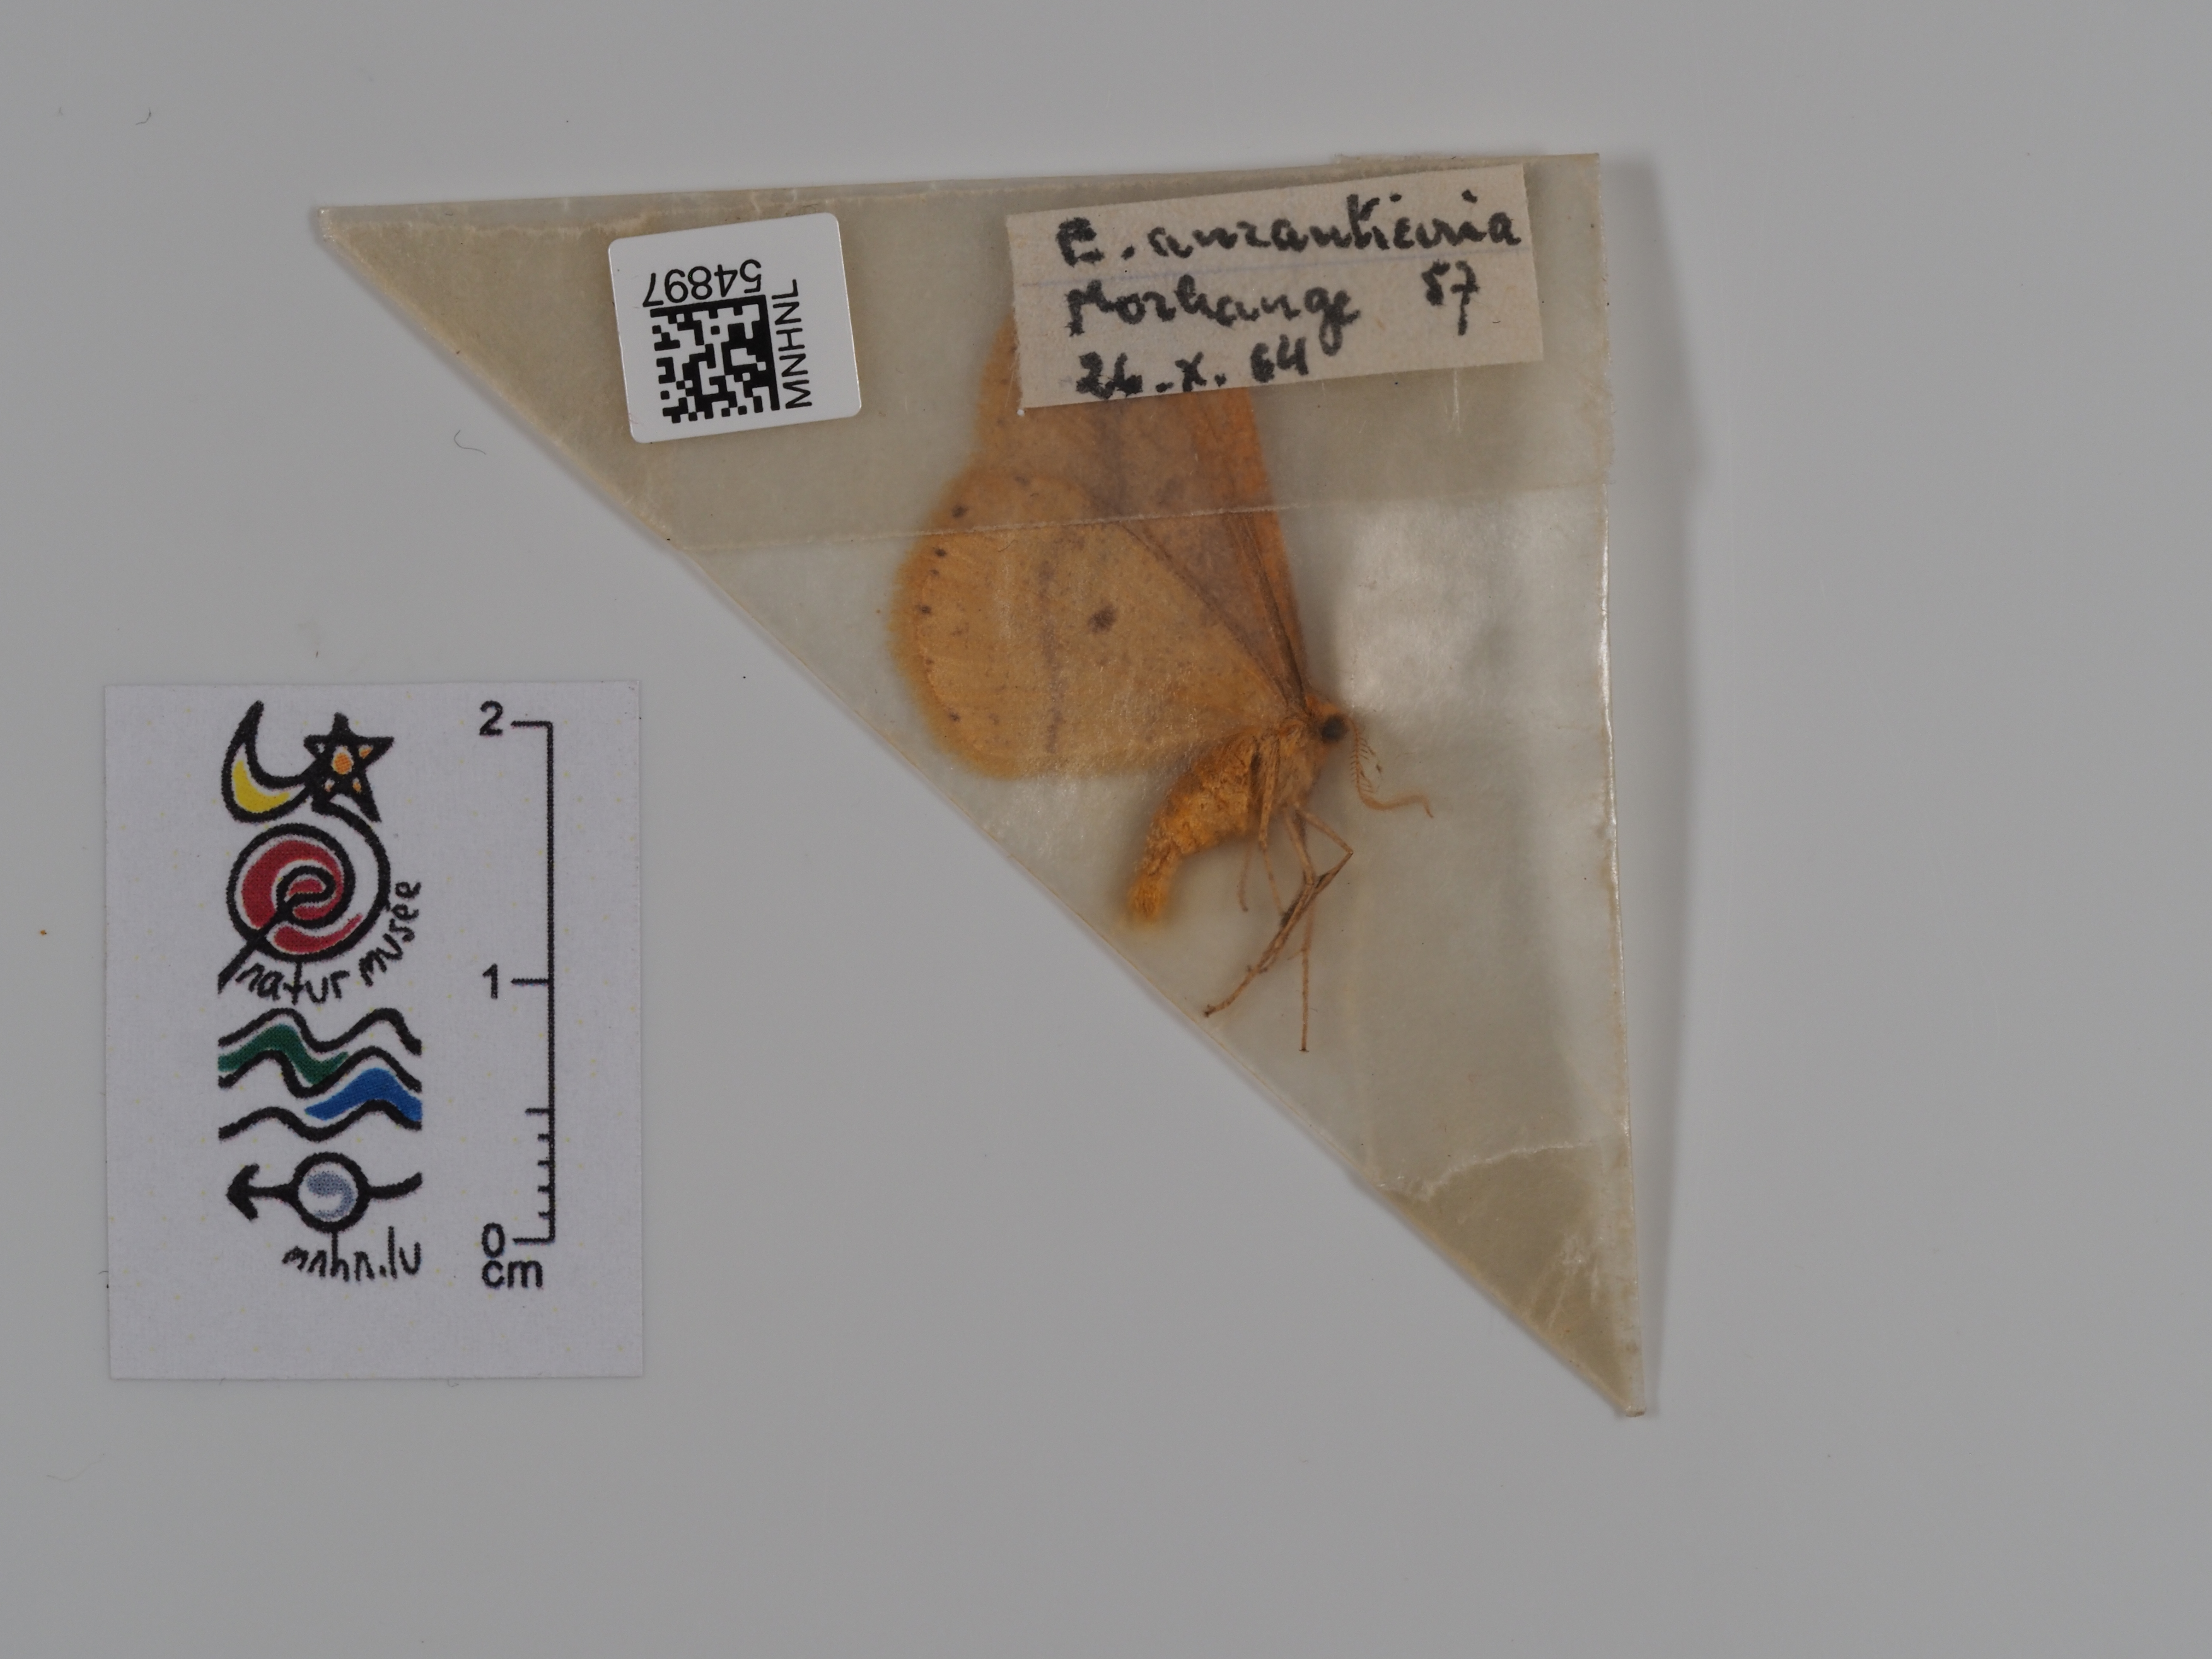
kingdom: Animalia
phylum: Arthropoda
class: Insecta
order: Lepidoptera
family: Geometridae
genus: Erannis
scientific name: Erannis
